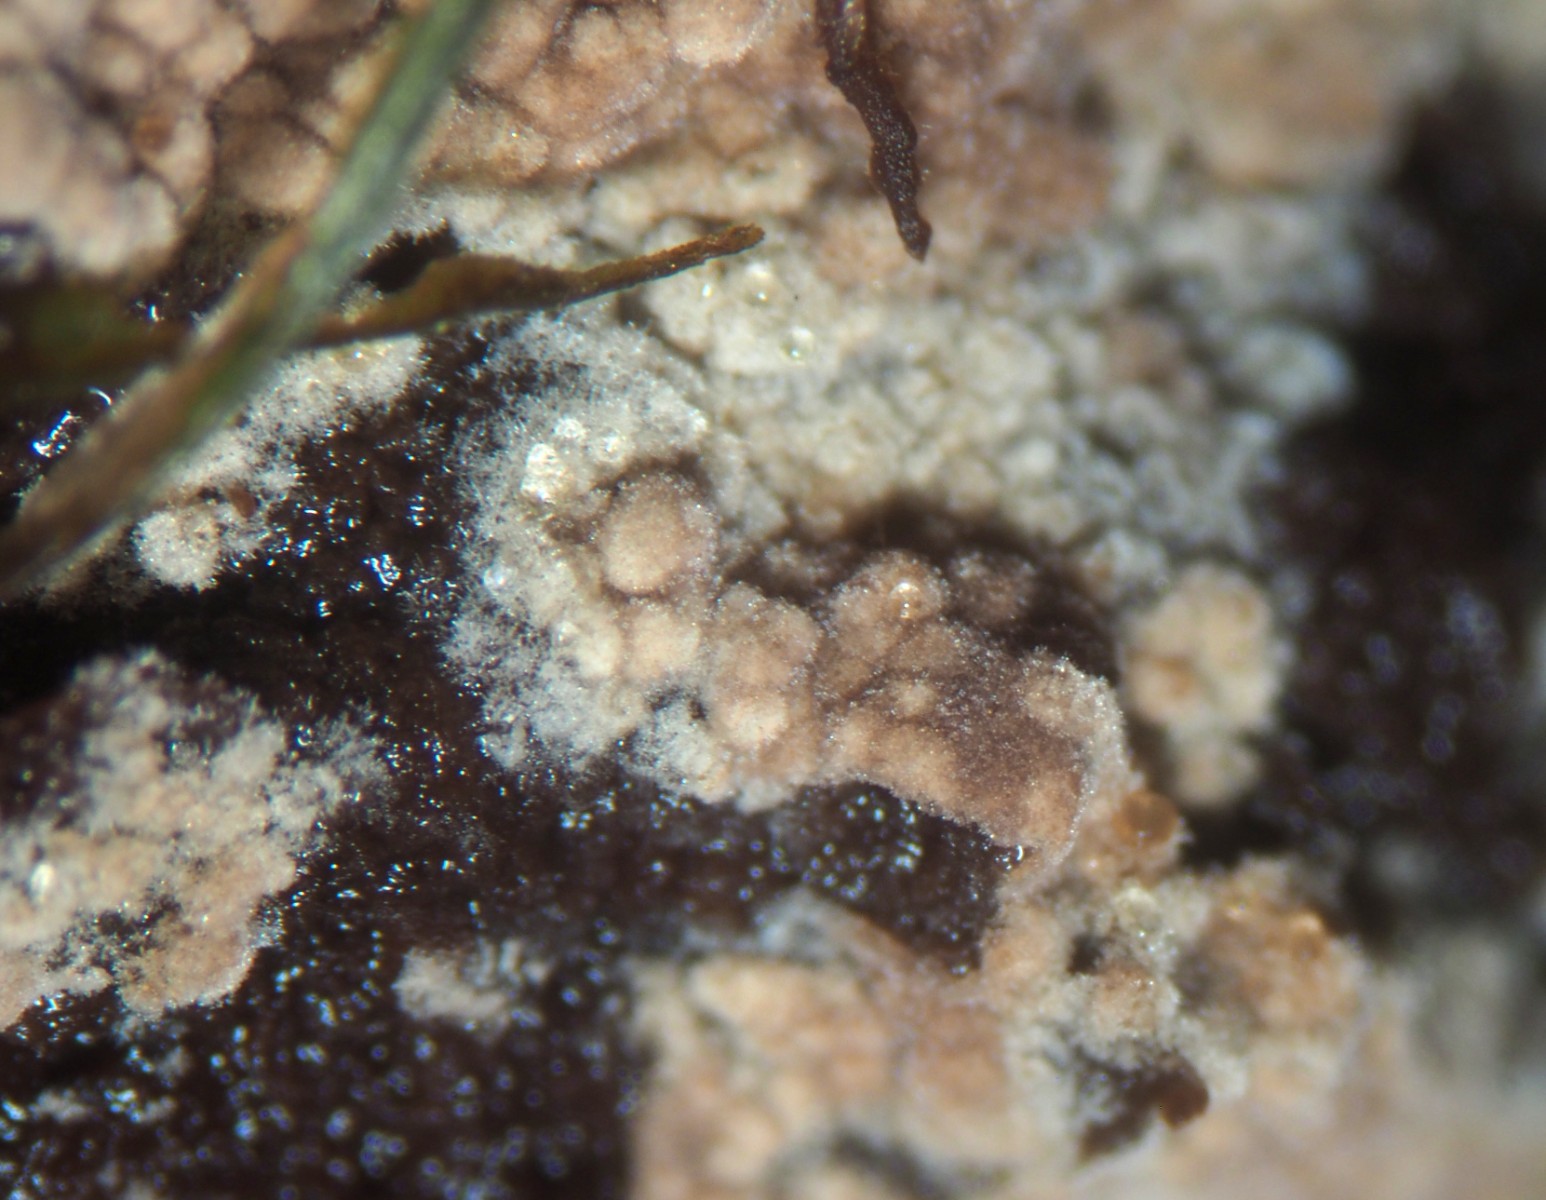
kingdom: Fungi
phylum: Basidiomycota
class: Agaricomycetes
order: Thelephorales
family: Thelephoraceae
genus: Tomentella
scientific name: Tomentella
